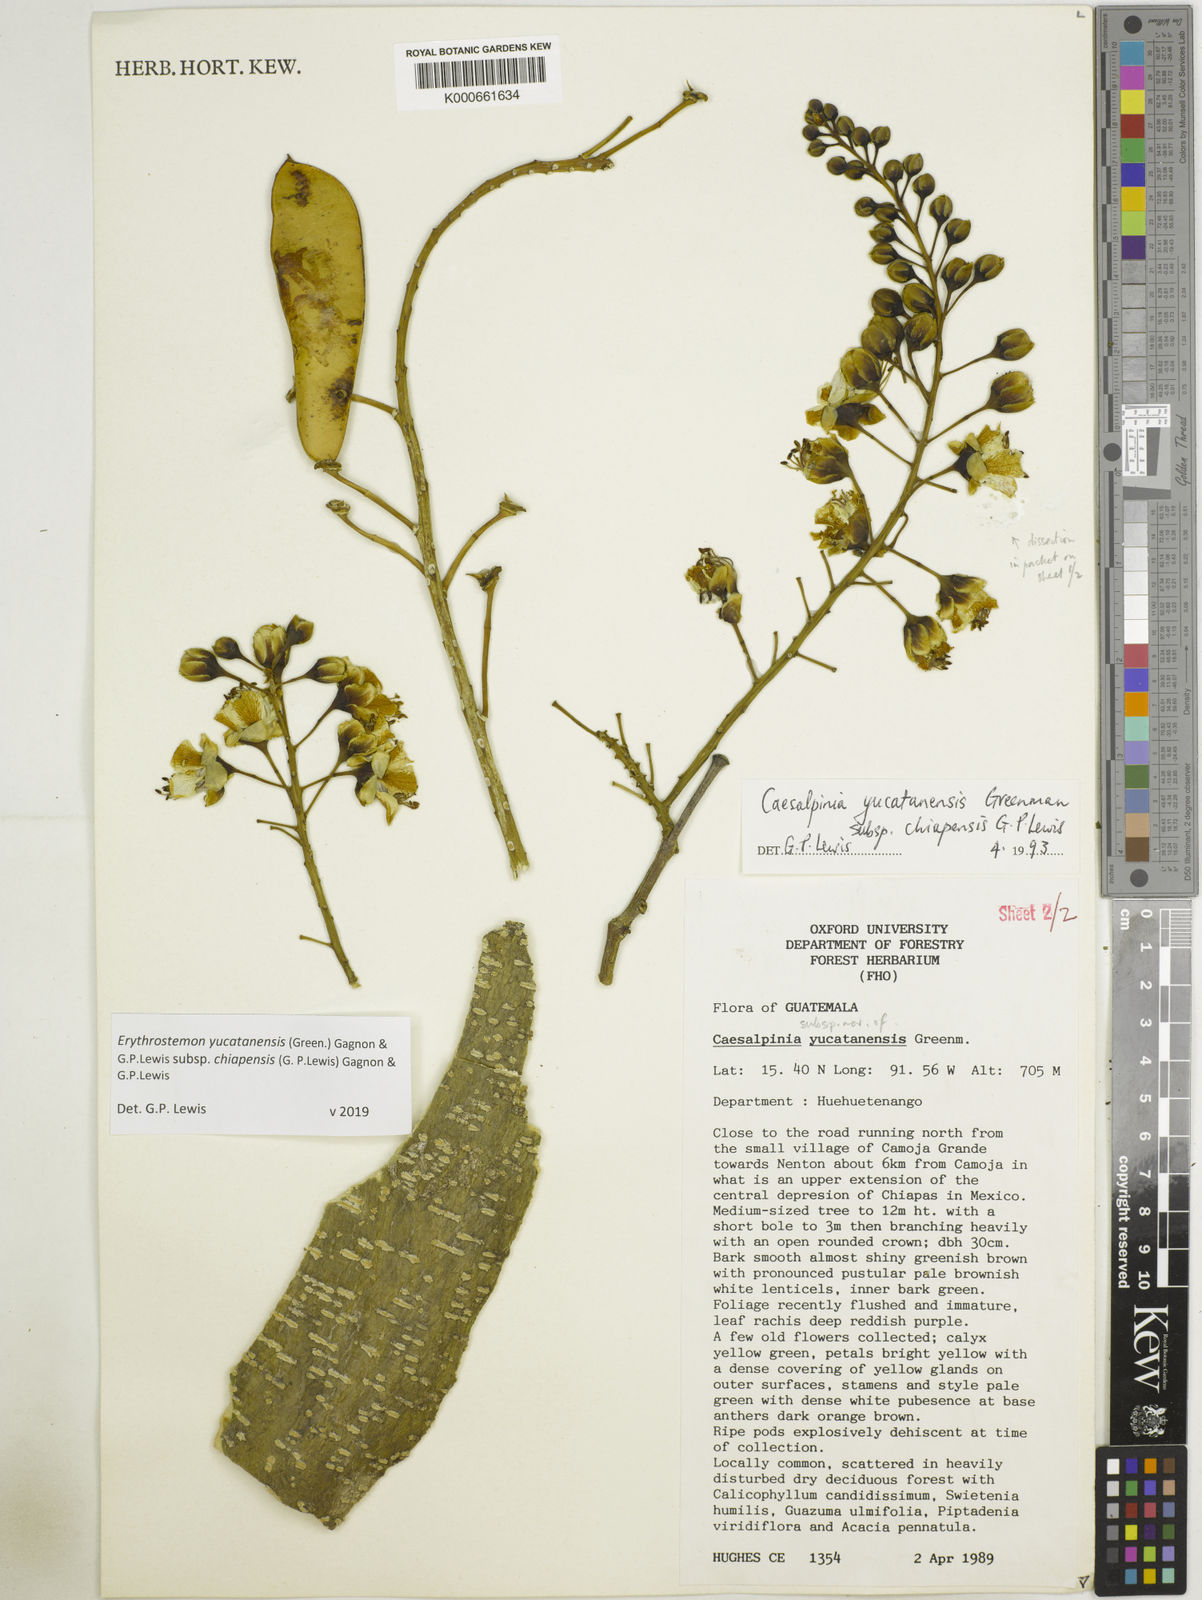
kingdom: Plantae
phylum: Tracheophyta
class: Magnoliopsida
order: Fabales
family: Fabaceae
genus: Caesalpinia
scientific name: Caesalpinia
